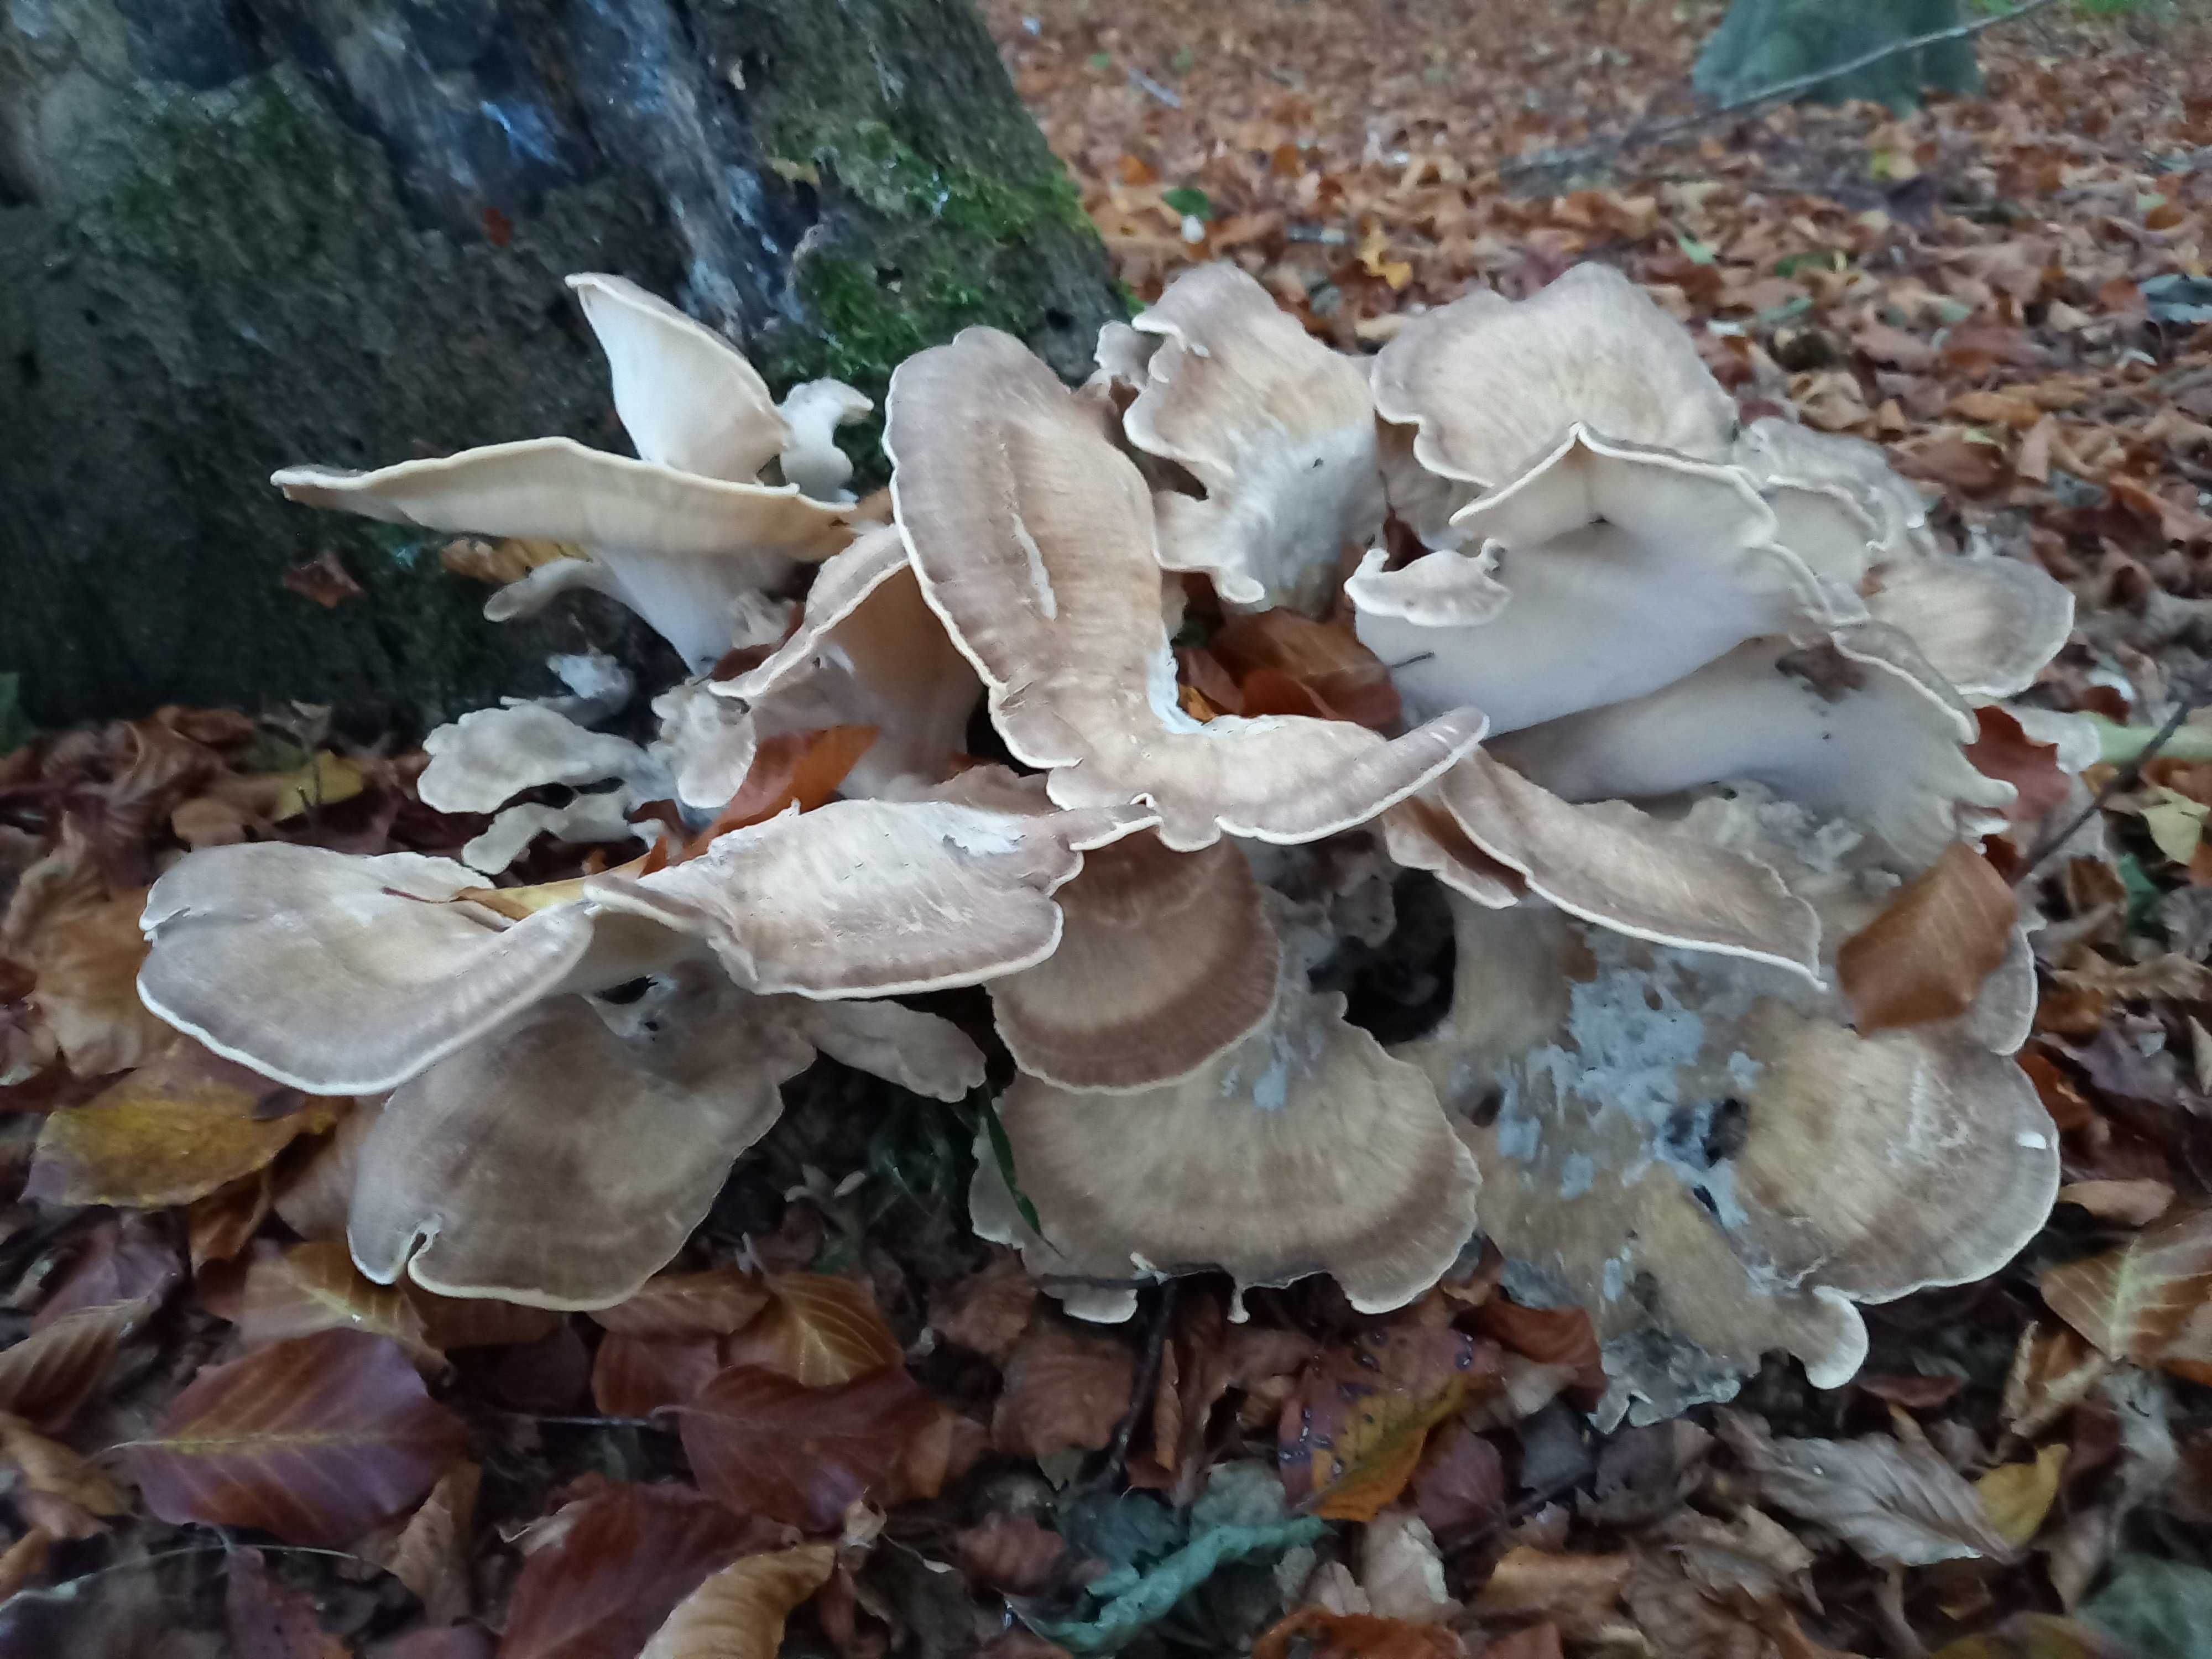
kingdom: Fungi
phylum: Basidiomycota
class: Agaricomycetes
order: Polyporales
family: Meripilaceae
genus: Meripilus
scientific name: Meripilus giganteus
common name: kæmpeporesvamp
